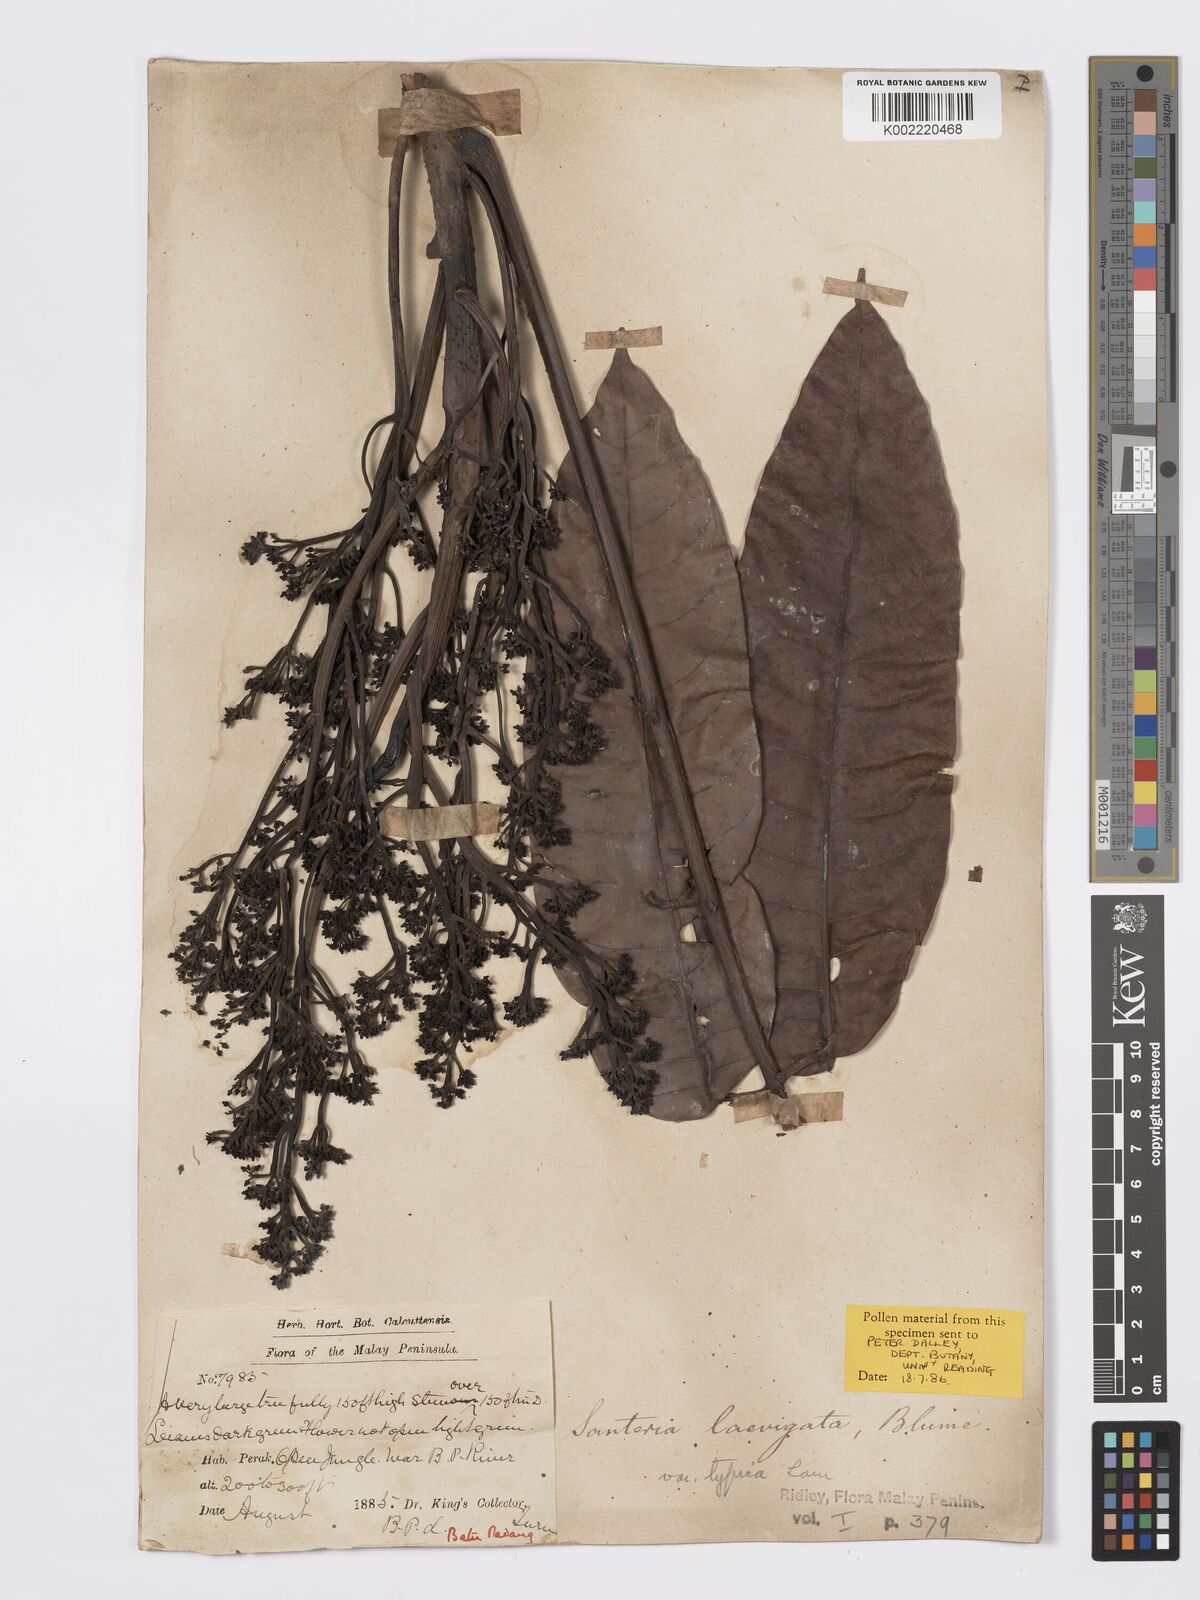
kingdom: Plantae
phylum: Tracheophyta
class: Magnoliopsida
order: Sapindales
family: Burseraceae
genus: Santiria
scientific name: Santiria laevigata
